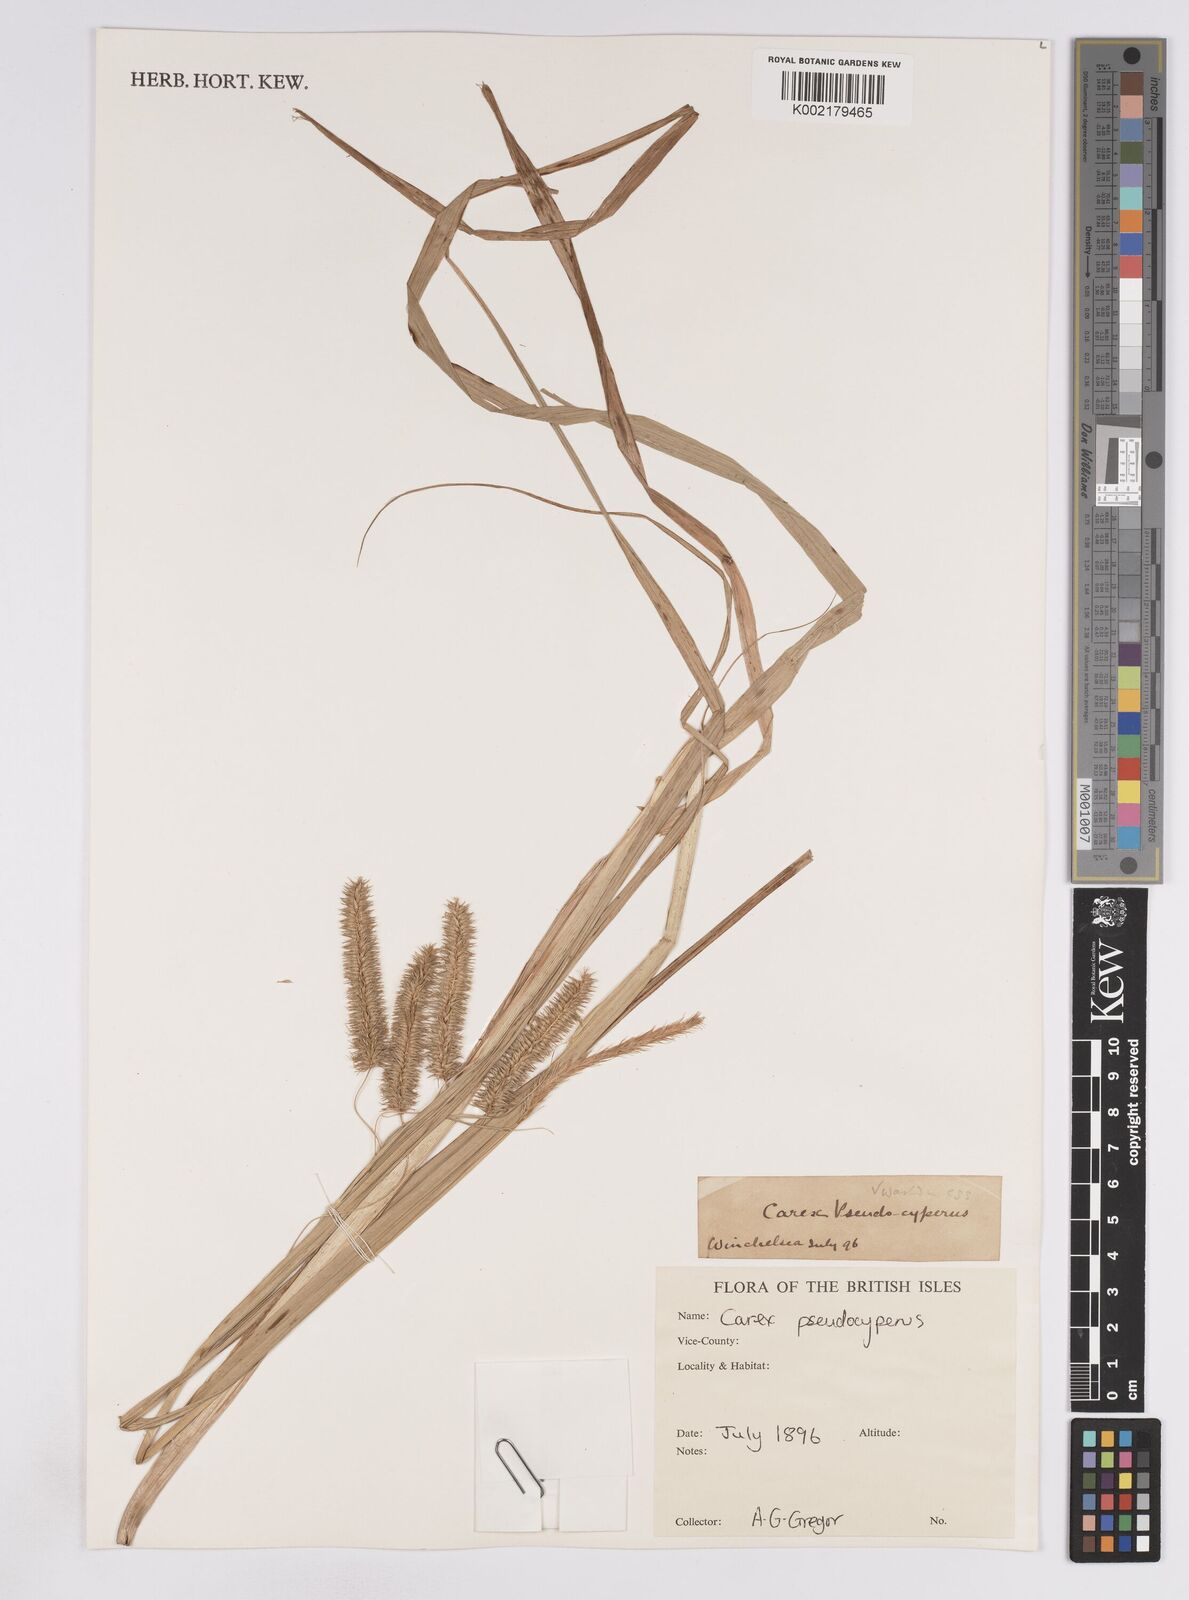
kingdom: Plantae
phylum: Tracheophyta
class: Liliopsida
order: Poales
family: Cyperaceae
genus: Carex
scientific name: Carex pseudocyperus
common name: Cyperus sedge
